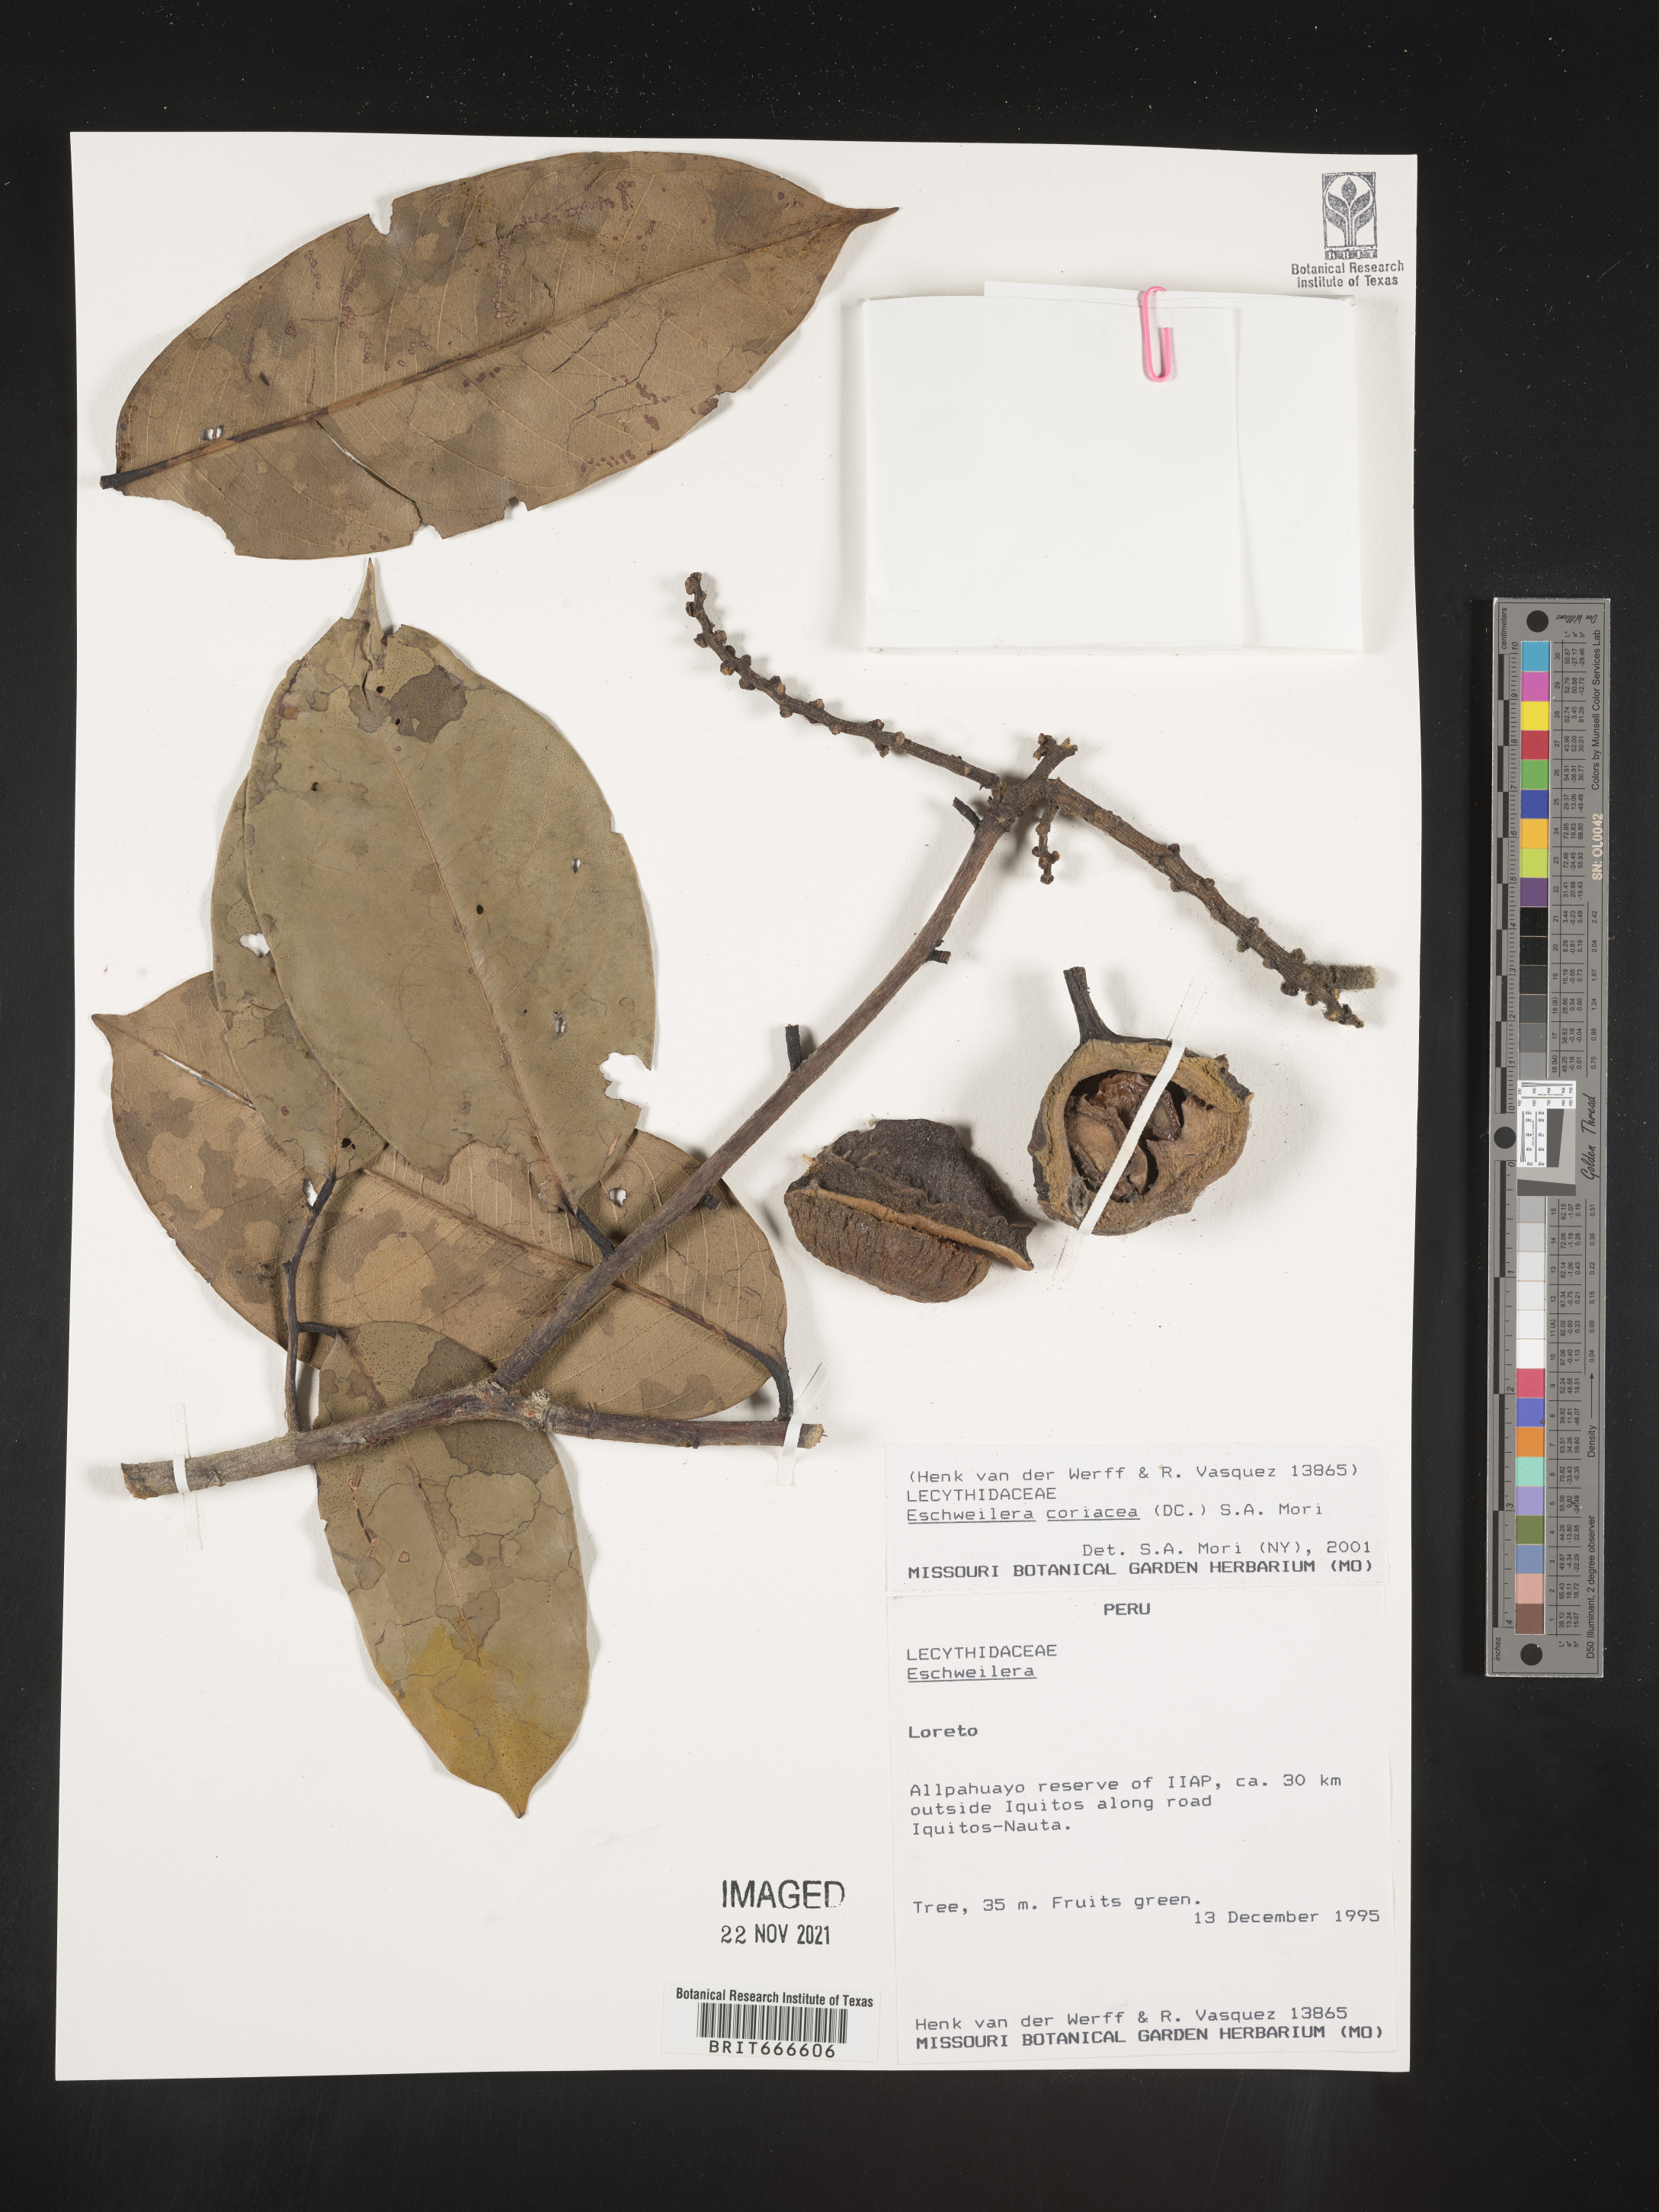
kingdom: Plantae
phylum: Tracheophyta
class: Magnoliopsida
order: Ericales
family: Lecythidaceae
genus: Eschweilera
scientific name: Eschweilera
